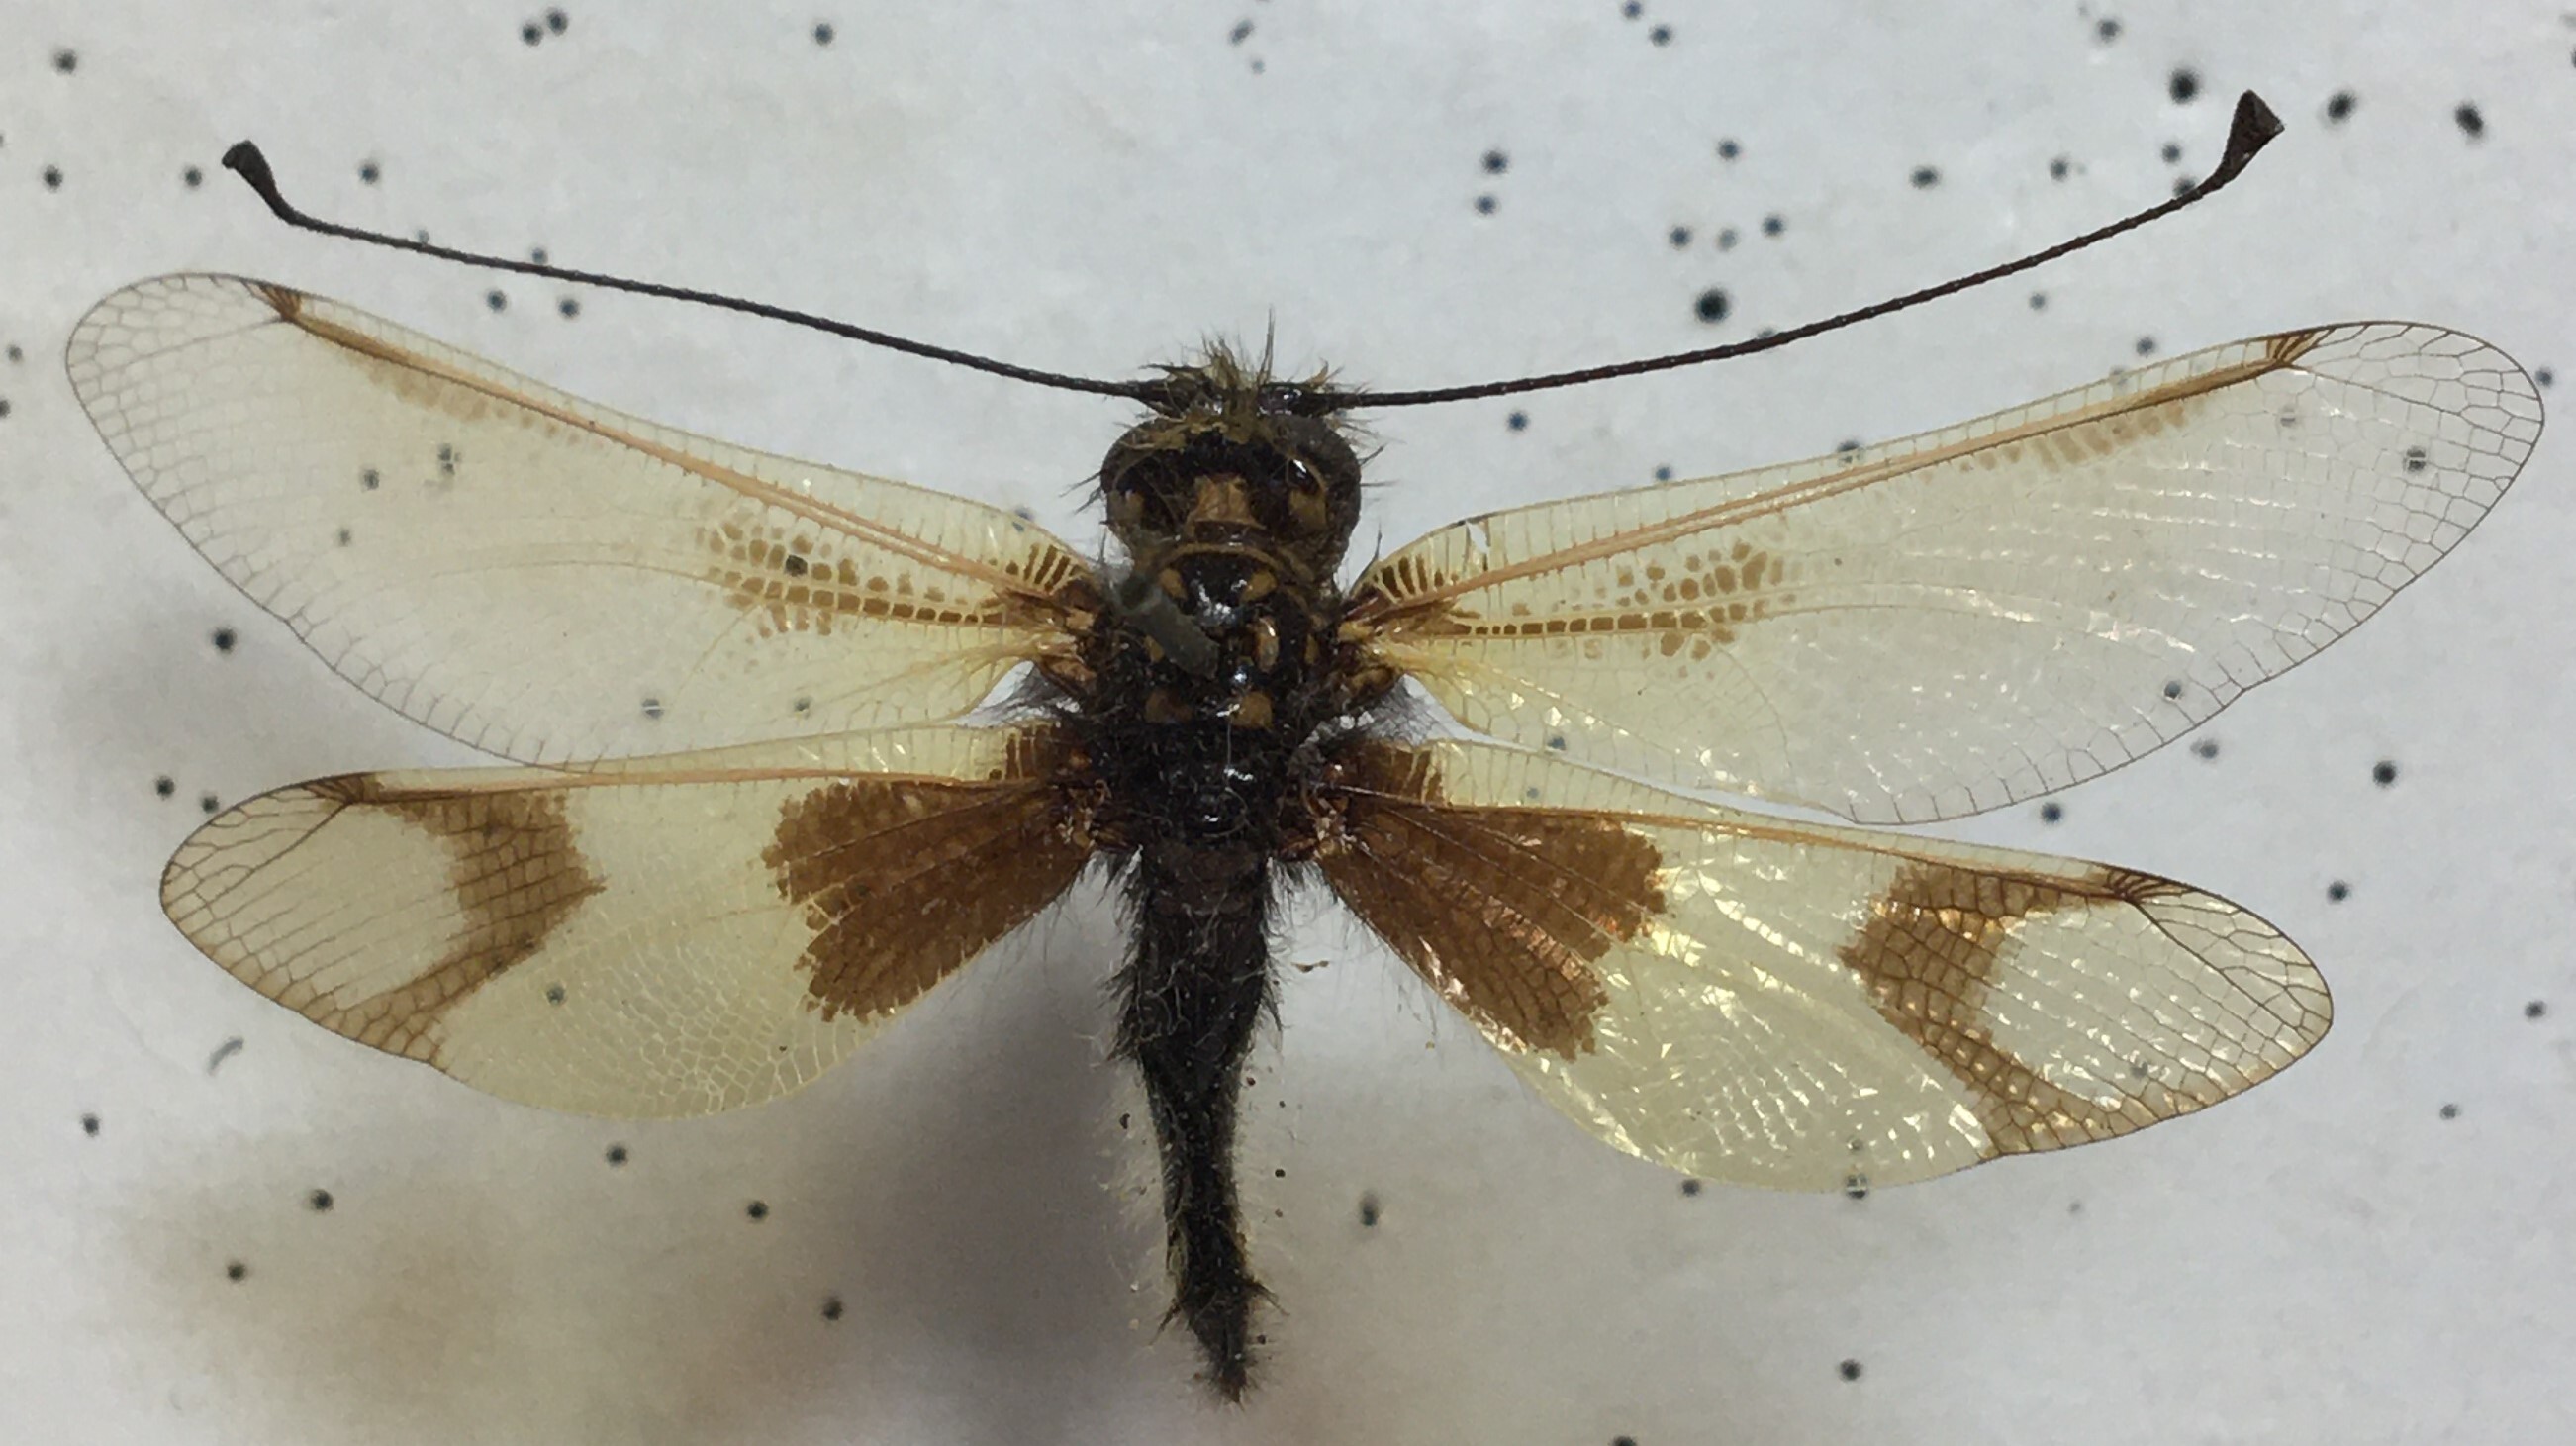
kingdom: Animalia
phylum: Arthropoda
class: Insecta
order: Neuroptera
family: Ascalaphidae
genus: Libelloides
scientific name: Libelloides macaronius
